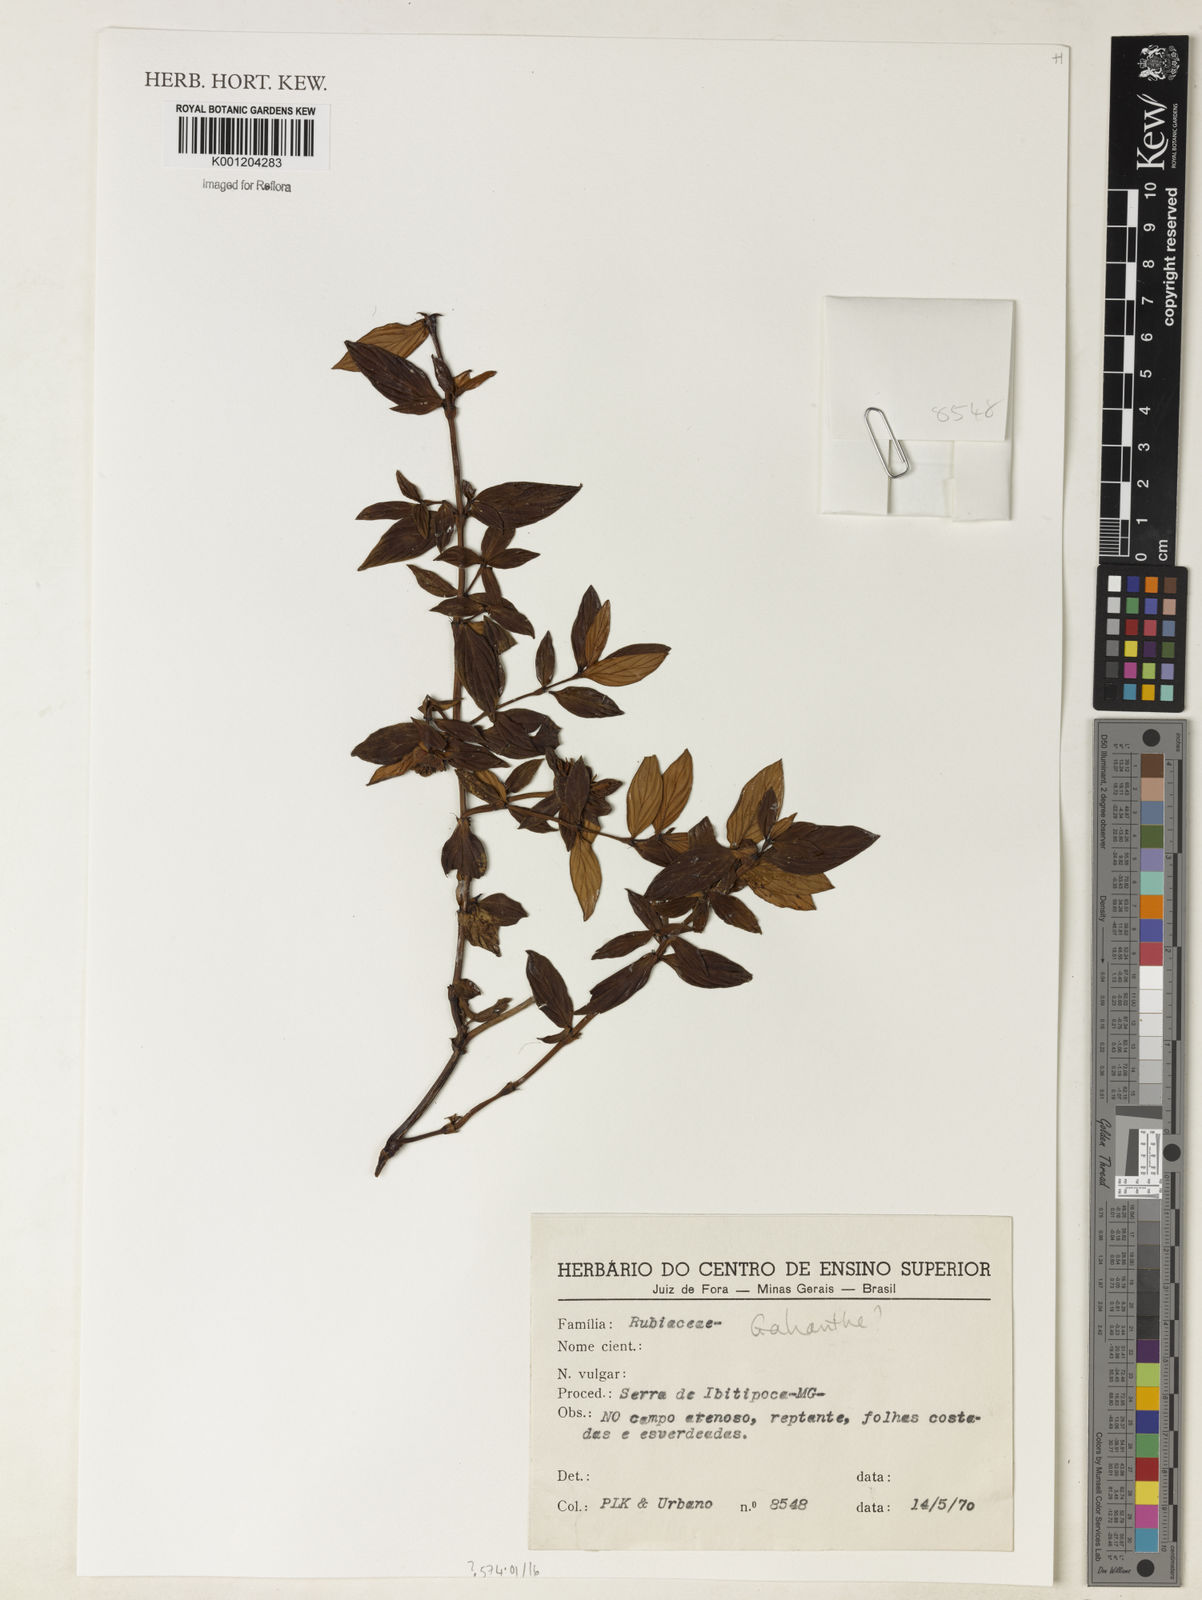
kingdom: Plantae
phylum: Tracheophyta
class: Magnoliopsida
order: Gentianales
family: Rubiaceae
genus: Galianthe
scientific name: Galianthe
